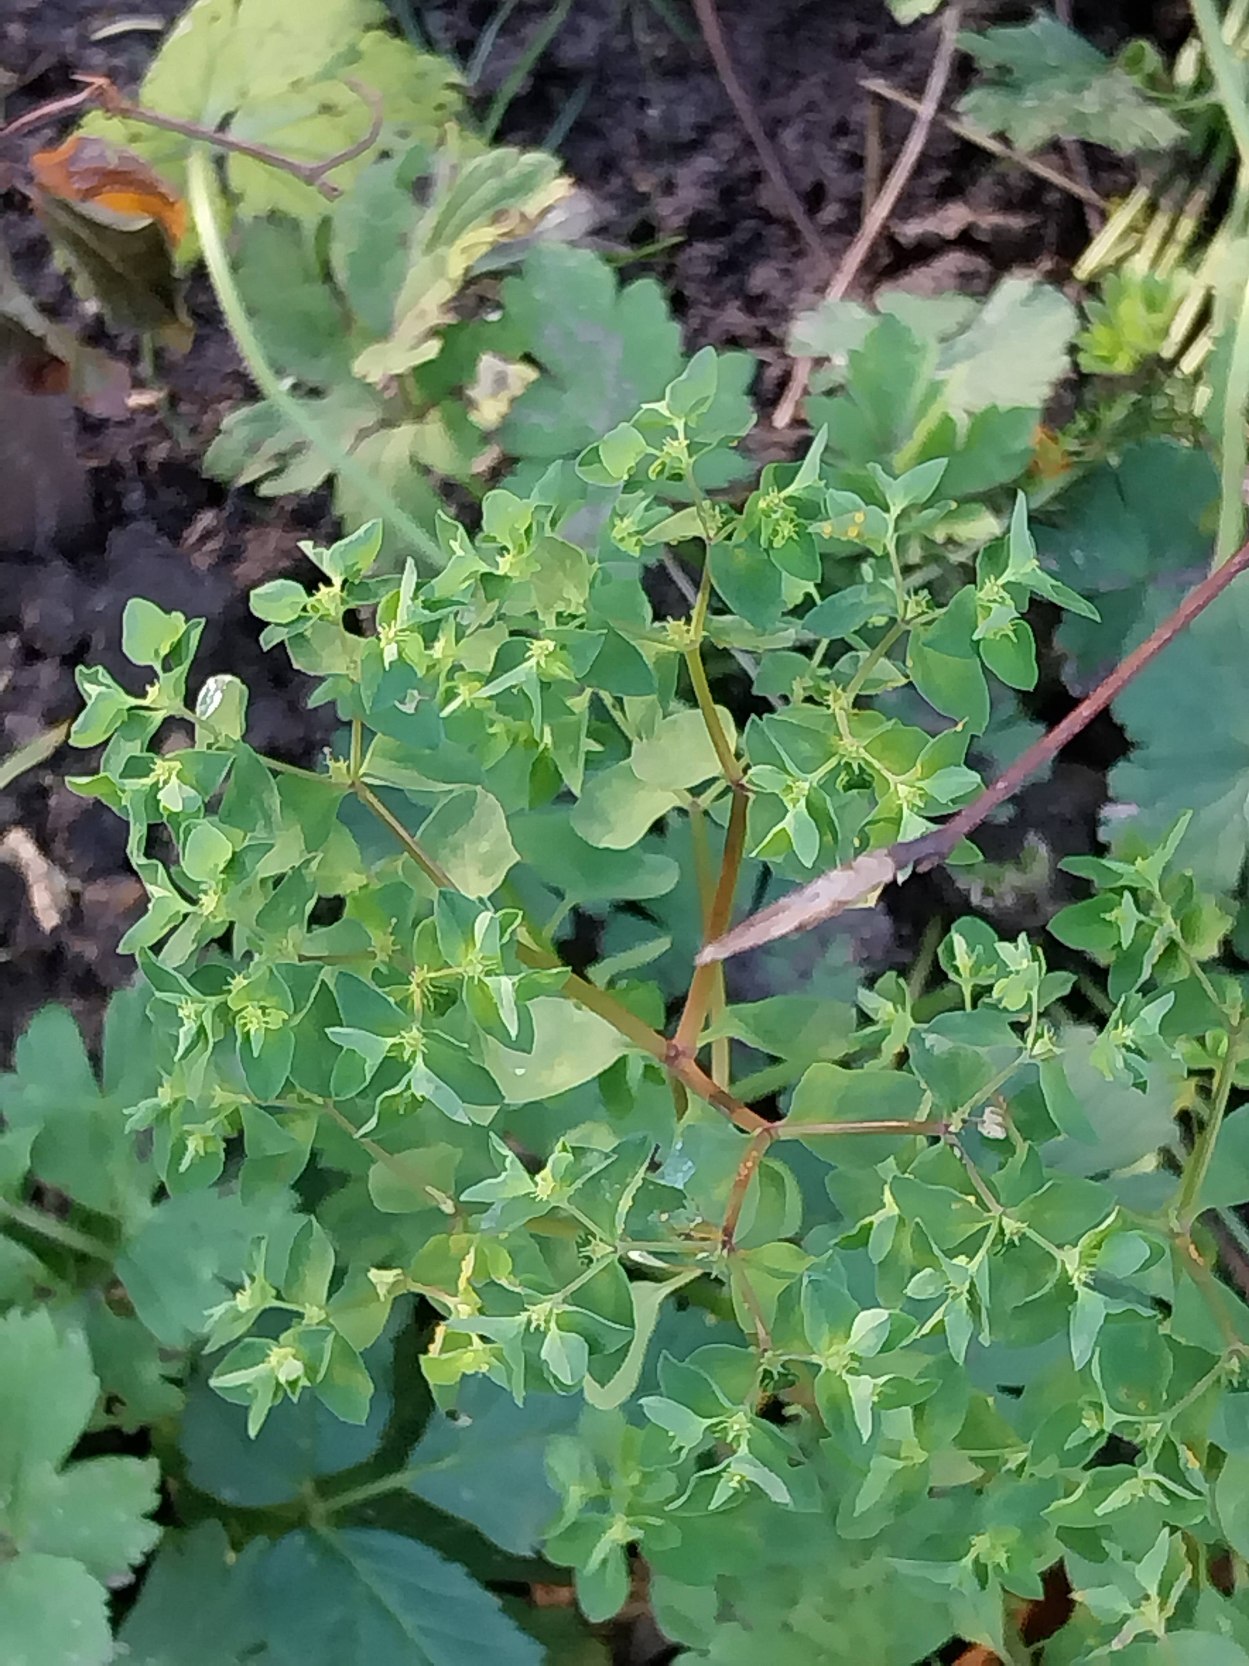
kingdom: Plantae
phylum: Tracheophyta
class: Magnoliopsida
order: Malpighiales
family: Euphorbiaceae
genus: Euphorbia
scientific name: Euphorbia peplus
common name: Gaffel-vortemælk
